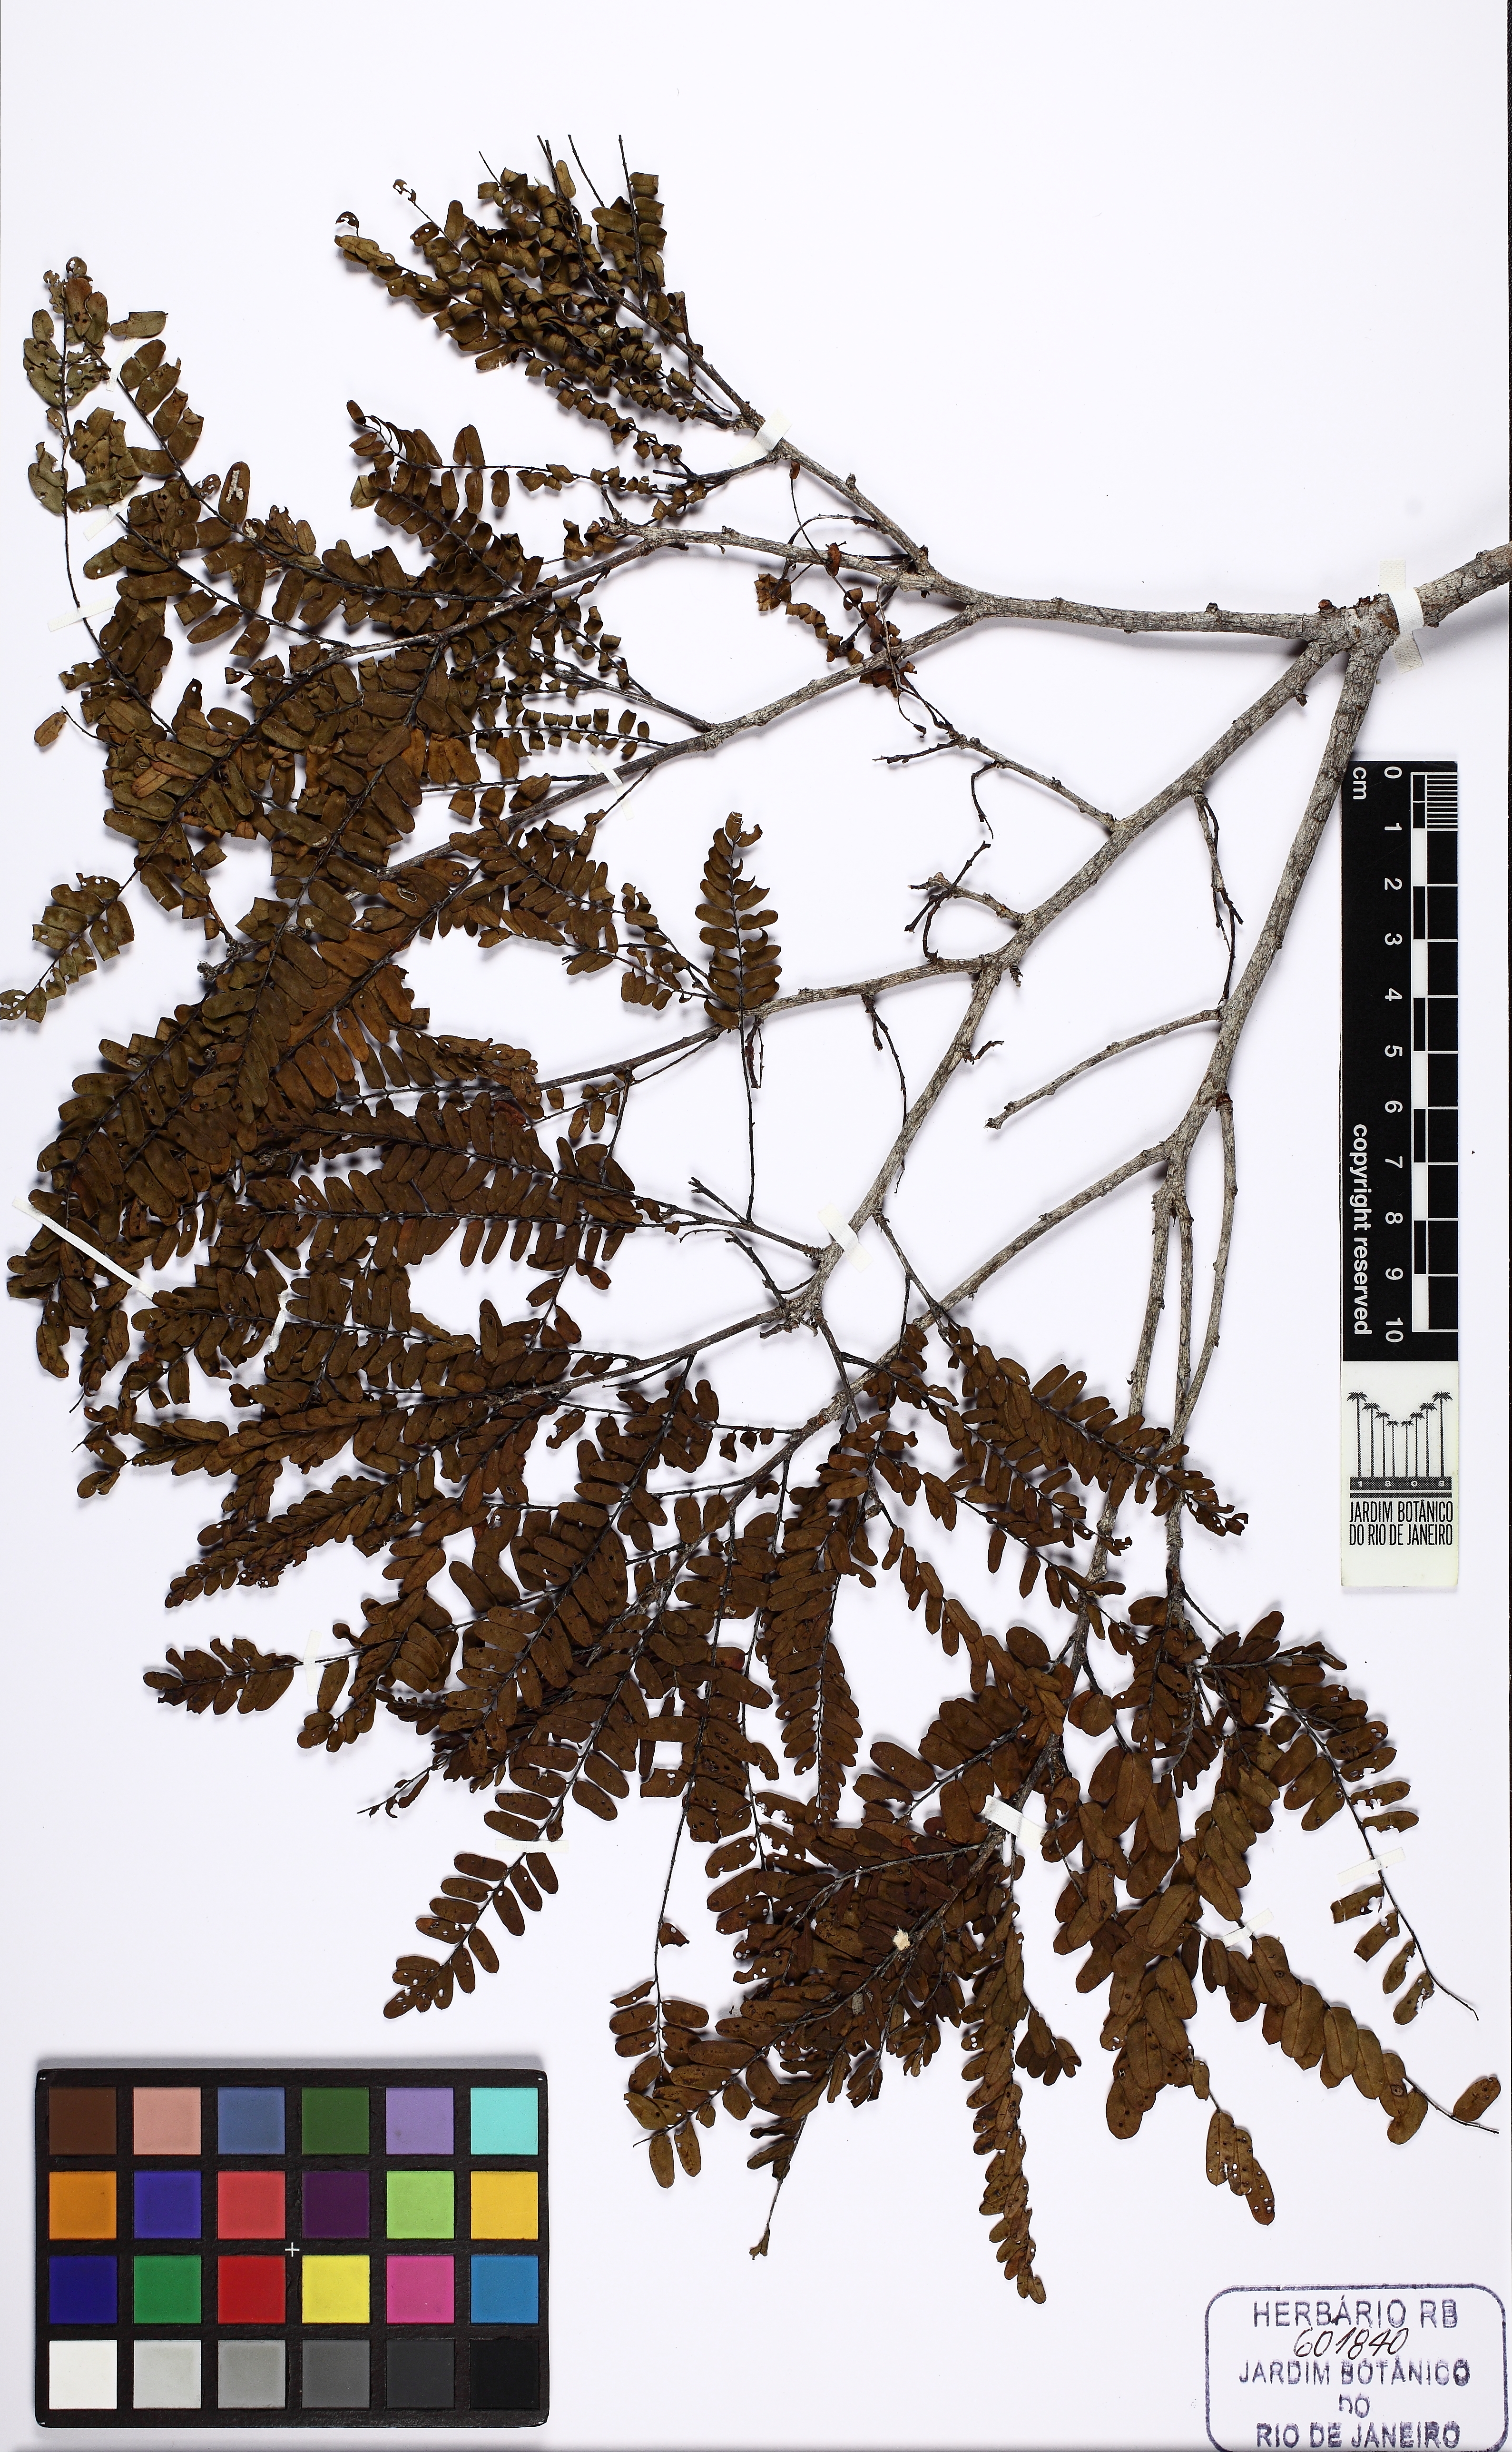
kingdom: Plantae
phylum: Tracheophyta
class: Magnoliopsida
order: Fabales
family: Fabaceae
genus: Dalbergia
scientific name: Dalbergia
